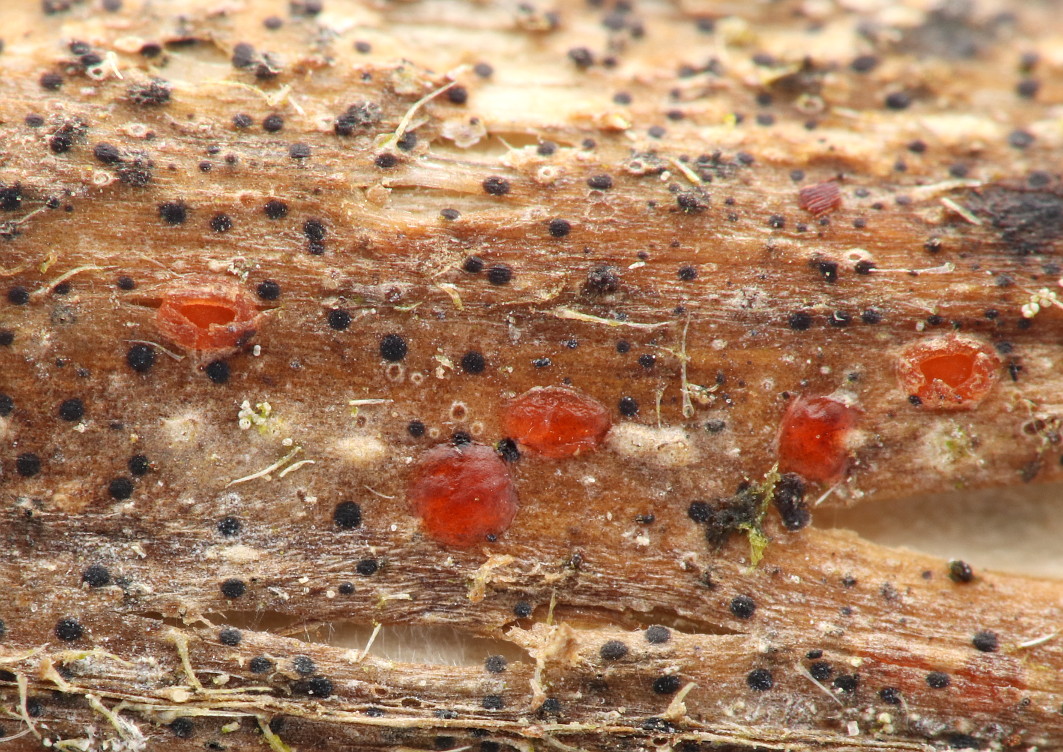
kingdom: Fungi
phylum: Ascomycota
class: Leotiomycetes
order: Helotiales
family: Calloriaceae
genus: Calloria
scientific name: Calloria urticae
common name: nælde-orangeskive
